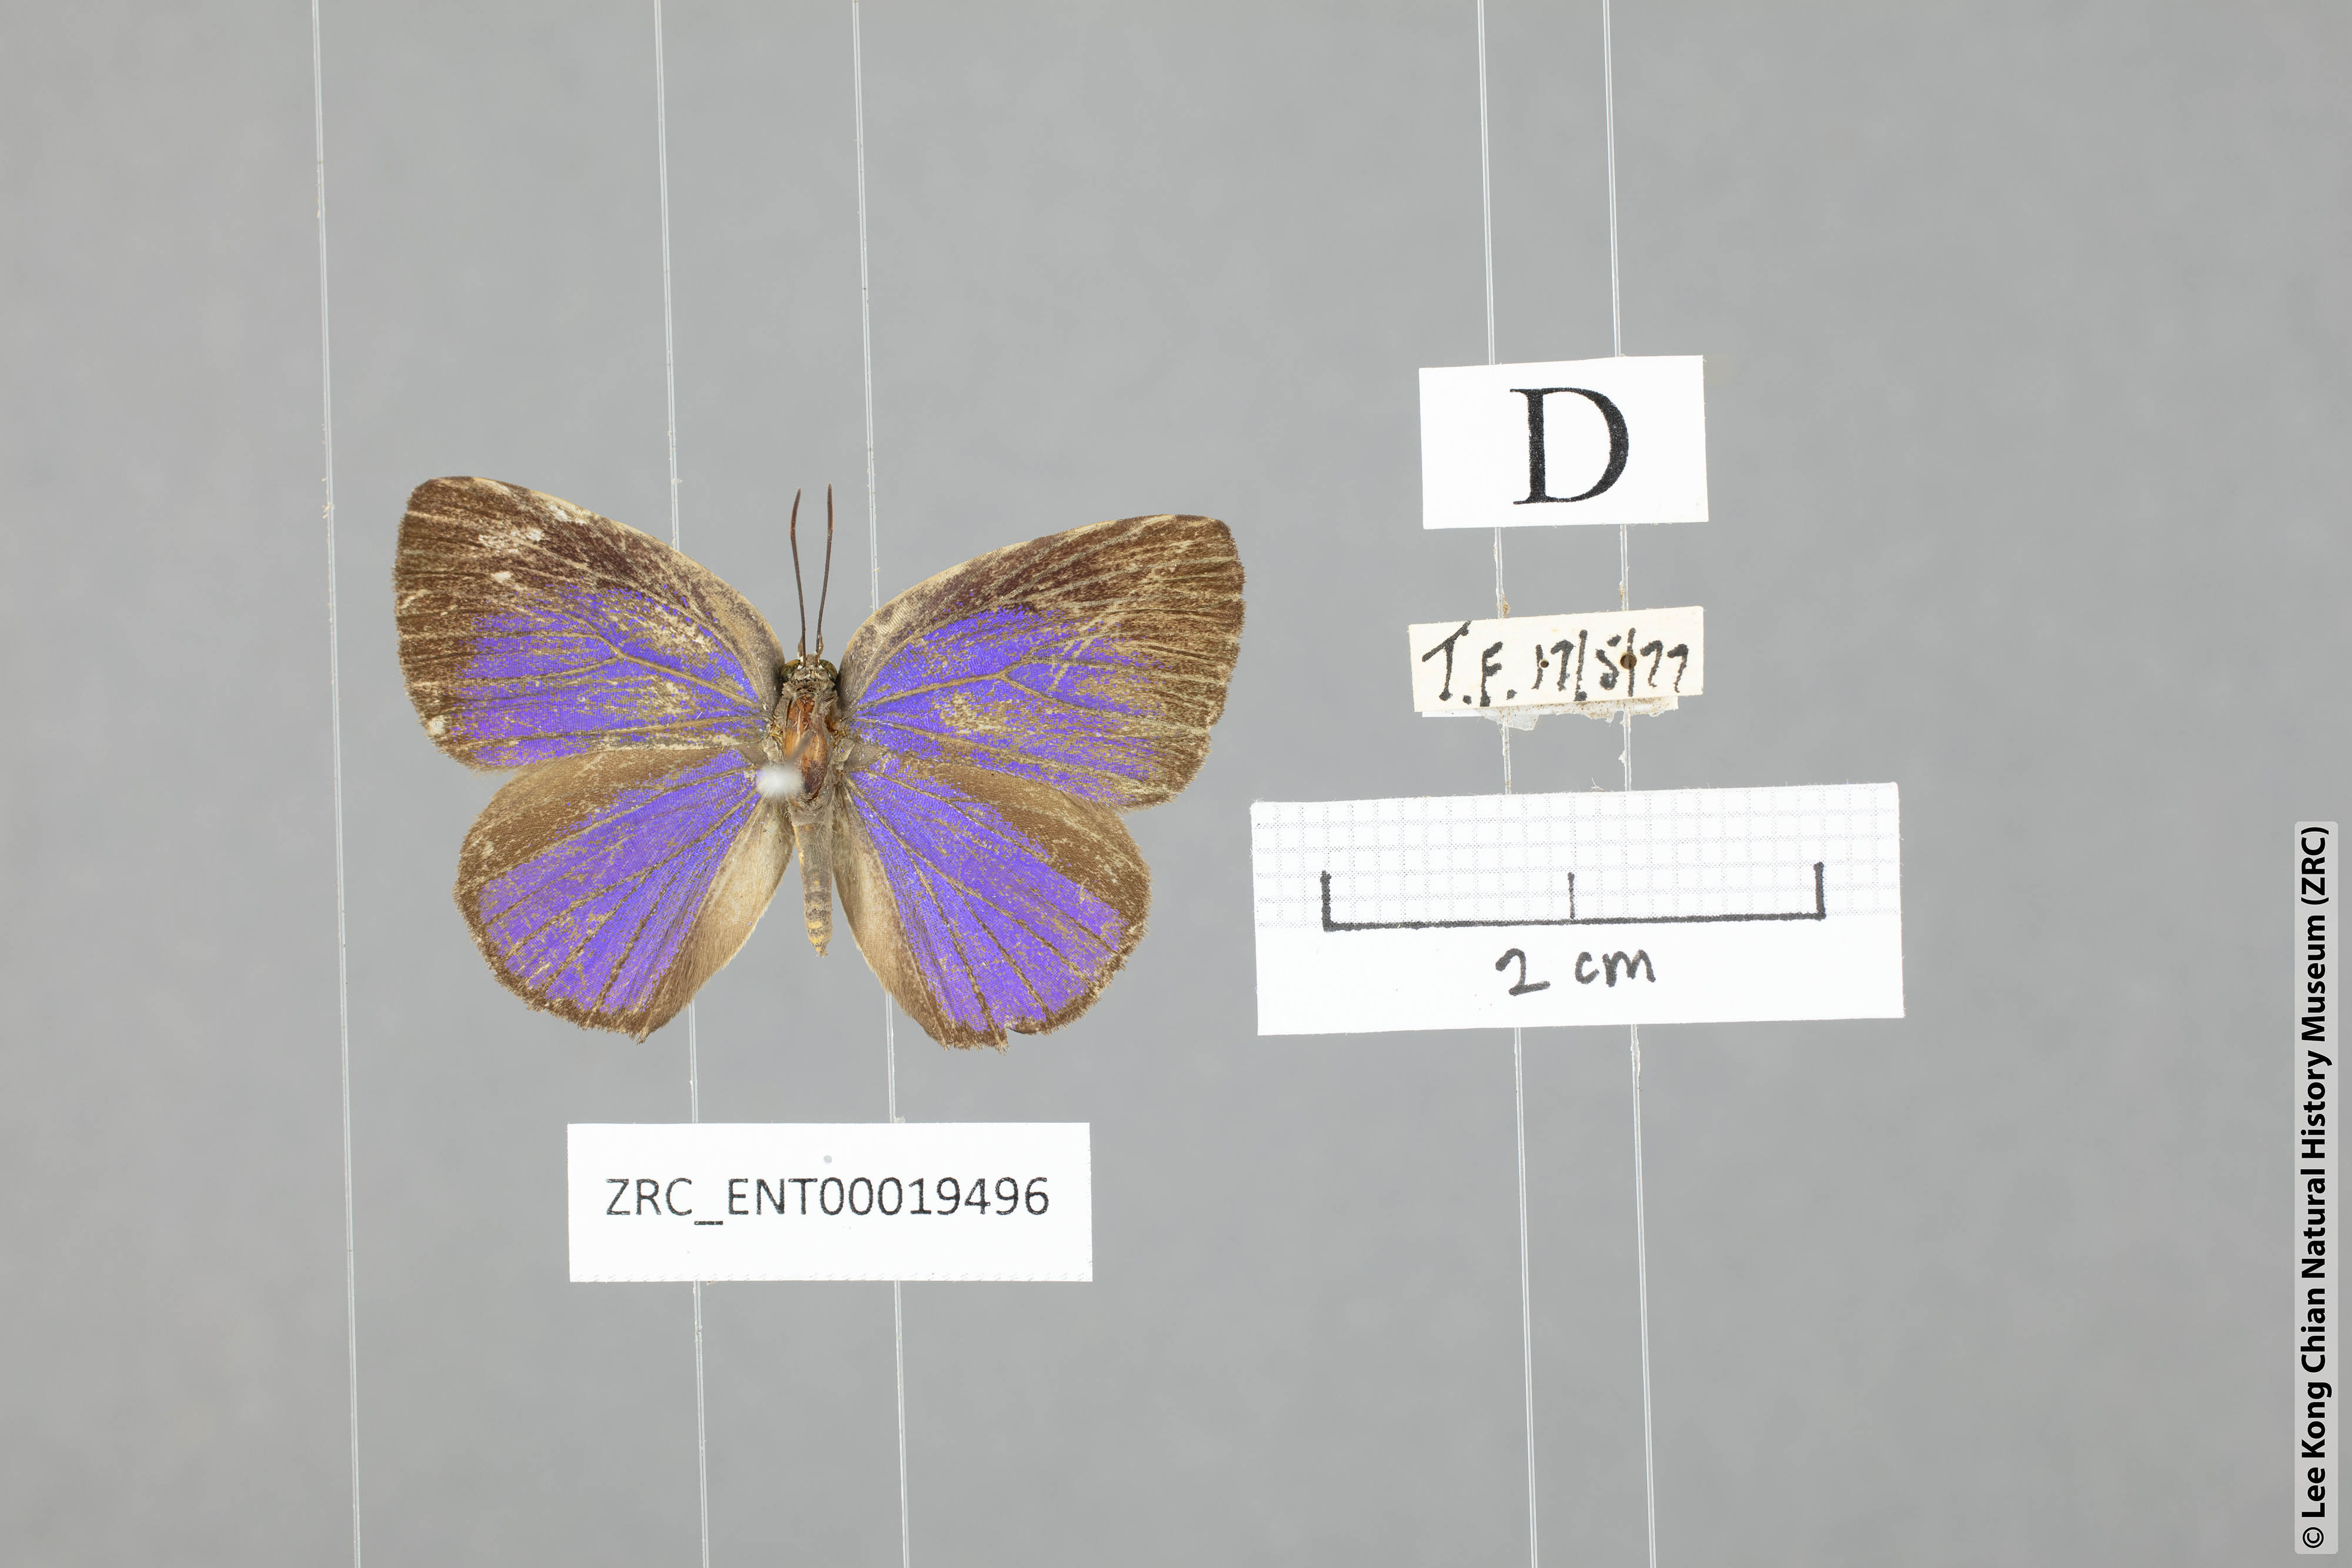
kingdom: Animalia
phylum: Arthropoda
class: Insecta
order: Lepidoptera
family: Lycaenidae
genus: Arhopala
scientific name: Arhopala fulla
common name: Spotless oakblue
